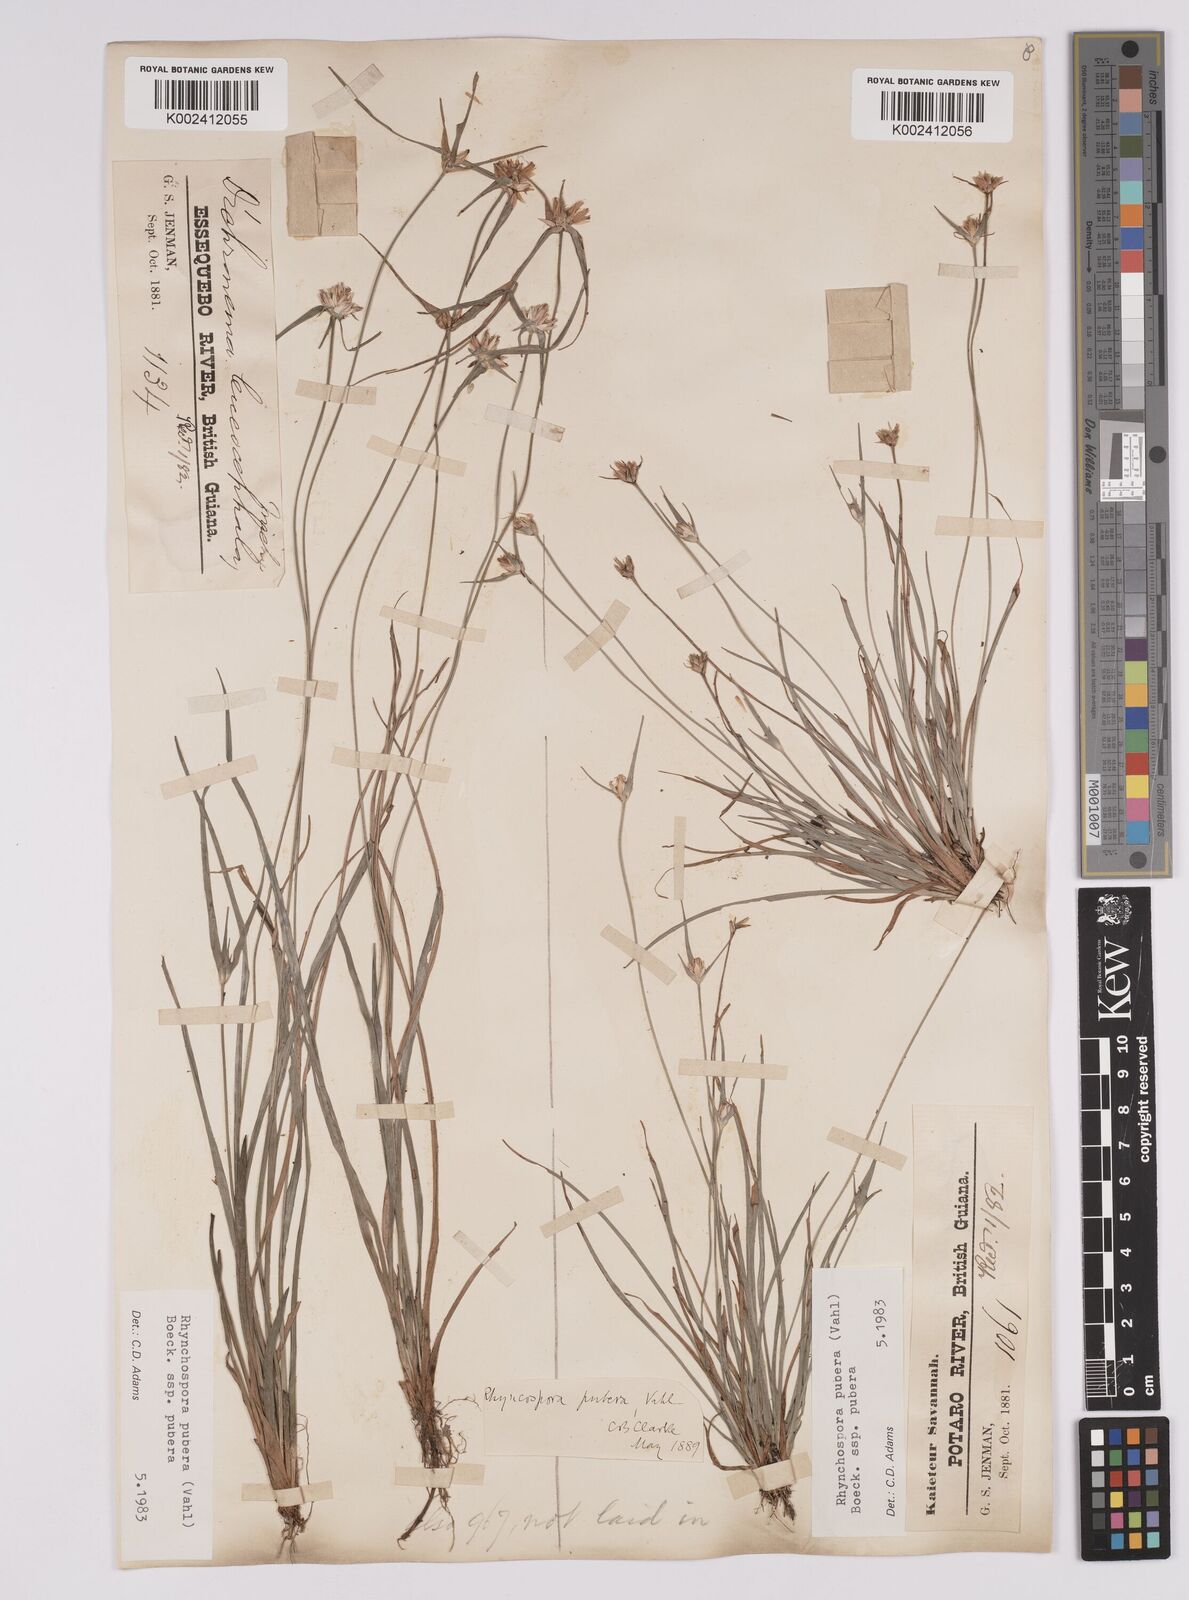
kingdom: Plantae
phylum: Tracheophyta
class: Liliopsida
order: Poales
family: Cyperaceae
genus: Rhynchospora
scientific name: Rhynchospora pubera
